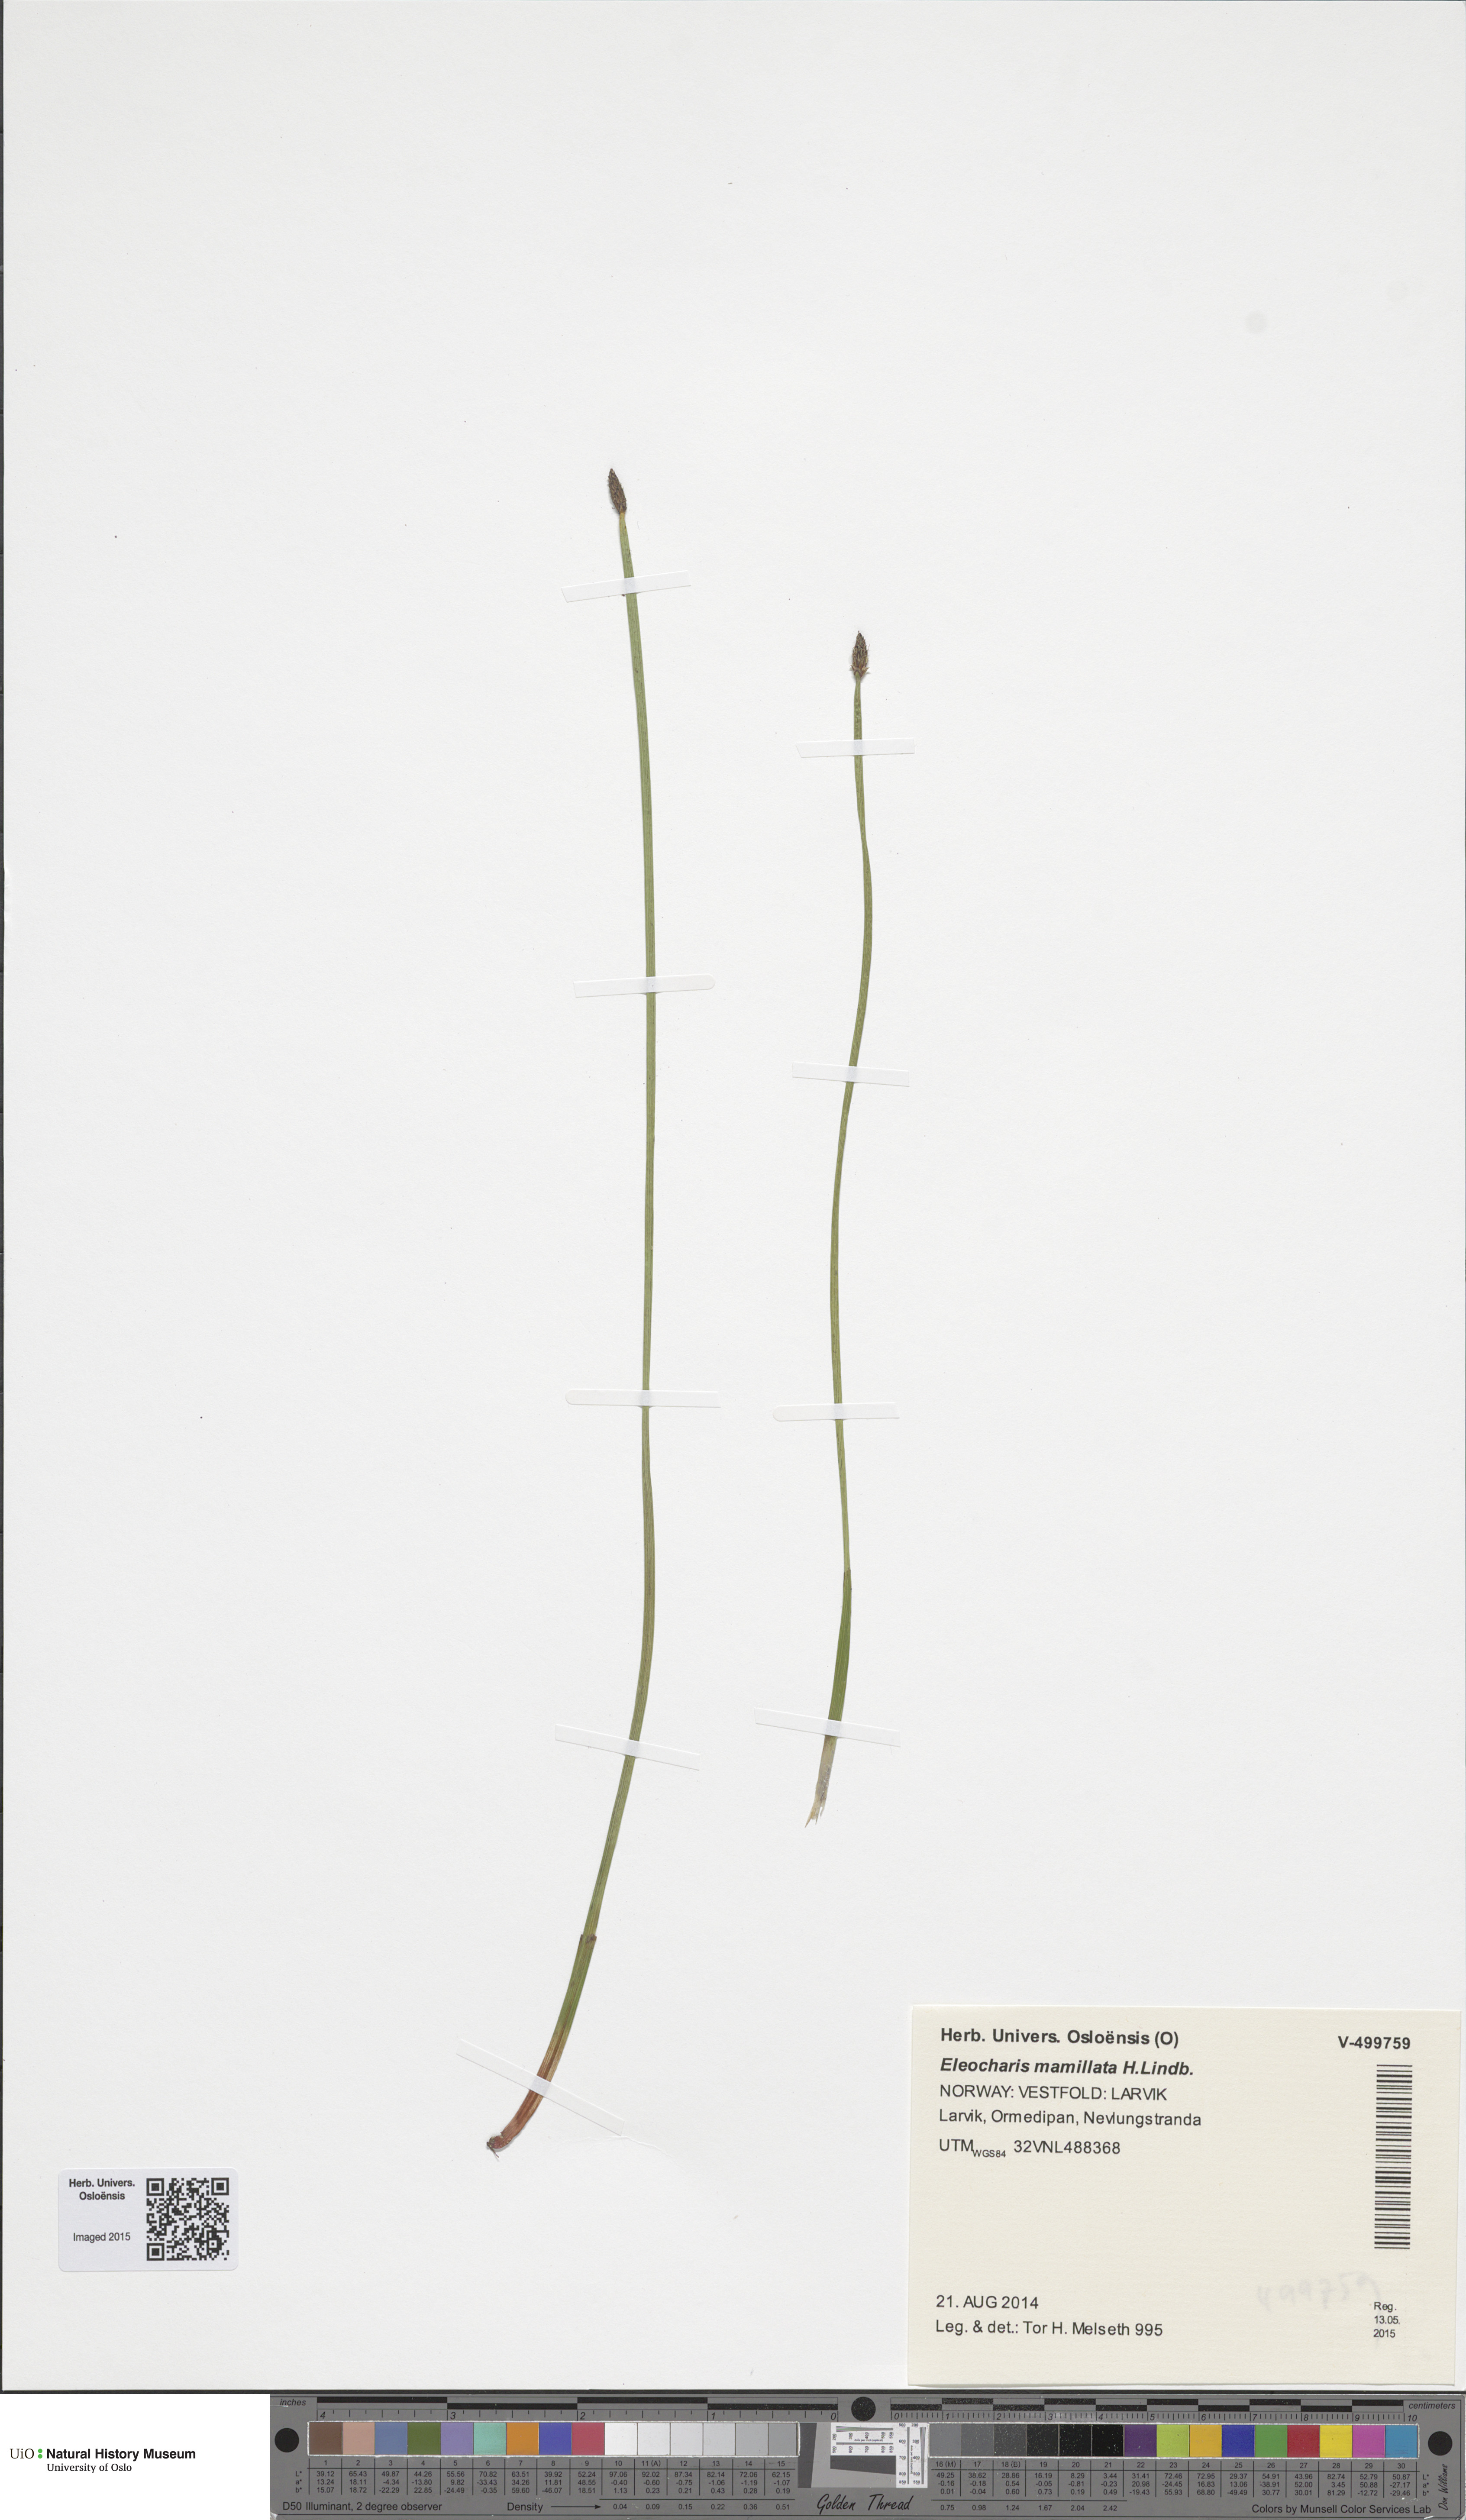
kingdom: Plantae
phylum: Tracheophyta
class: Liliopsida
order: Poales
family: Cyperaceae
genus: Eleocharis
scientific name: Eleocharis mamillata
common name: Northern spike-rush
